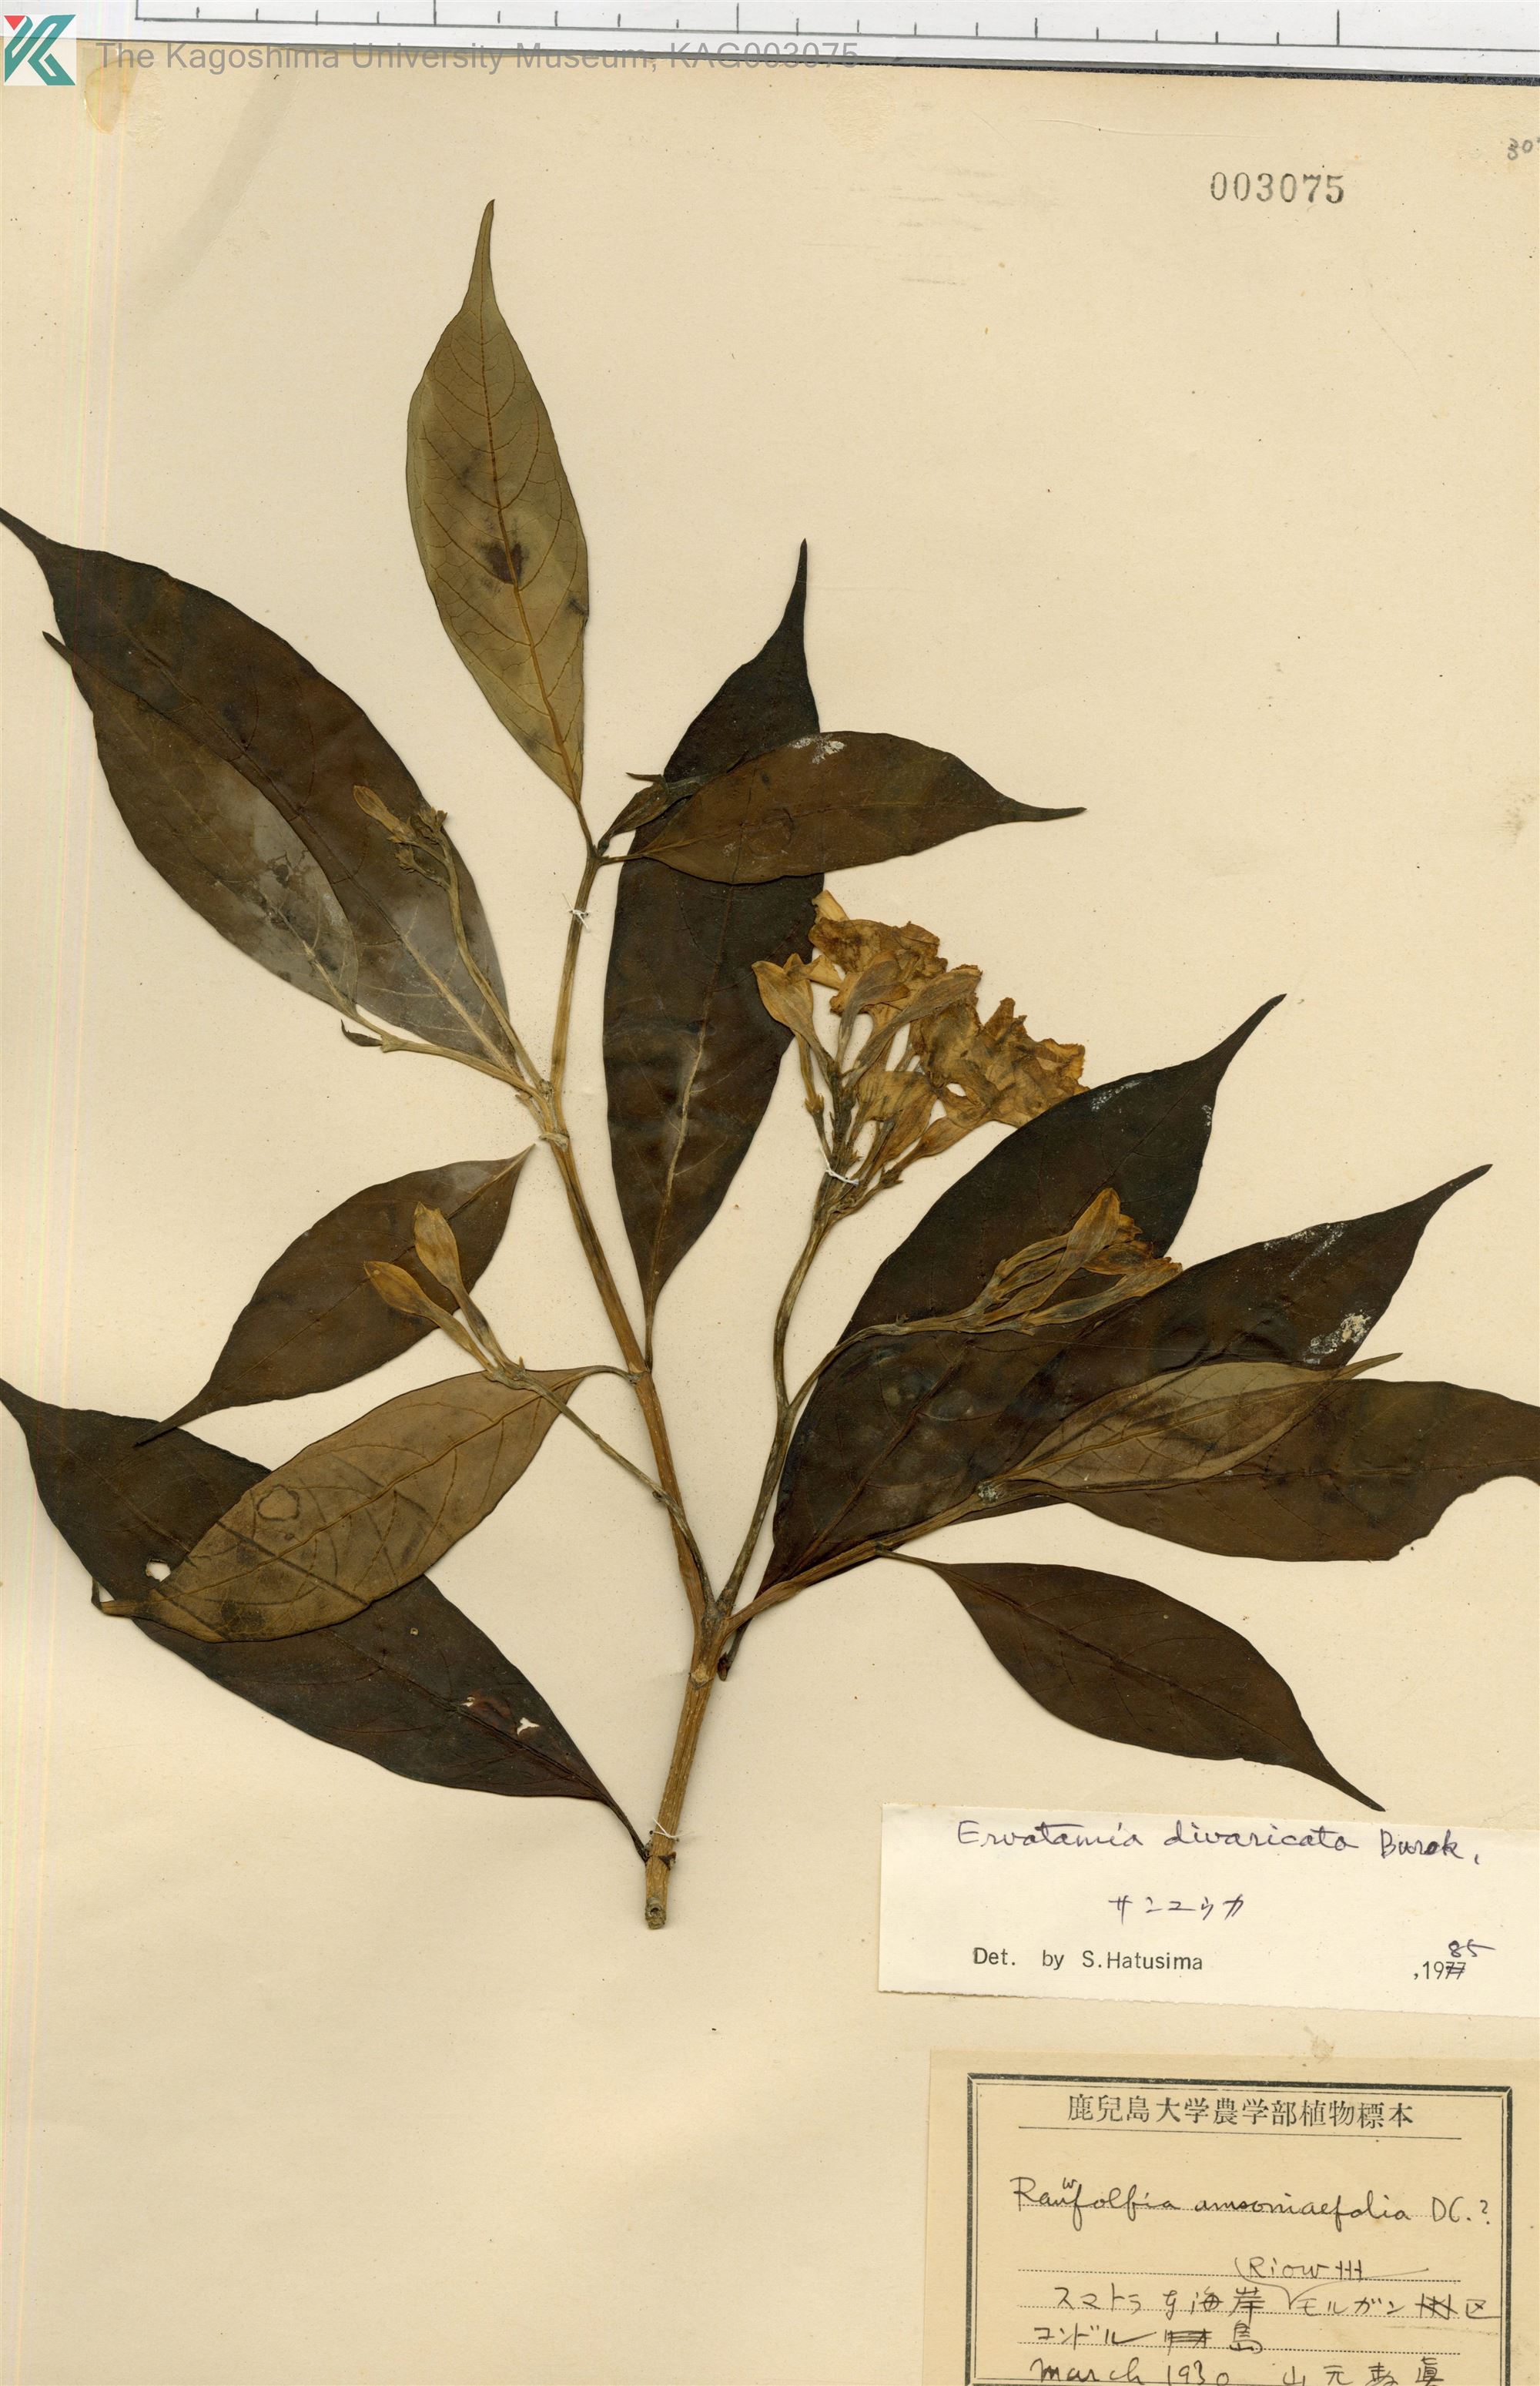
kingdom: Plantae
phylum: Tracheophyta
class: Magnoliopsida
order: Gentianales
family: Apocynaceae
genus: Tabernaemontana
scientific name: Tabernaemontana divaricata
